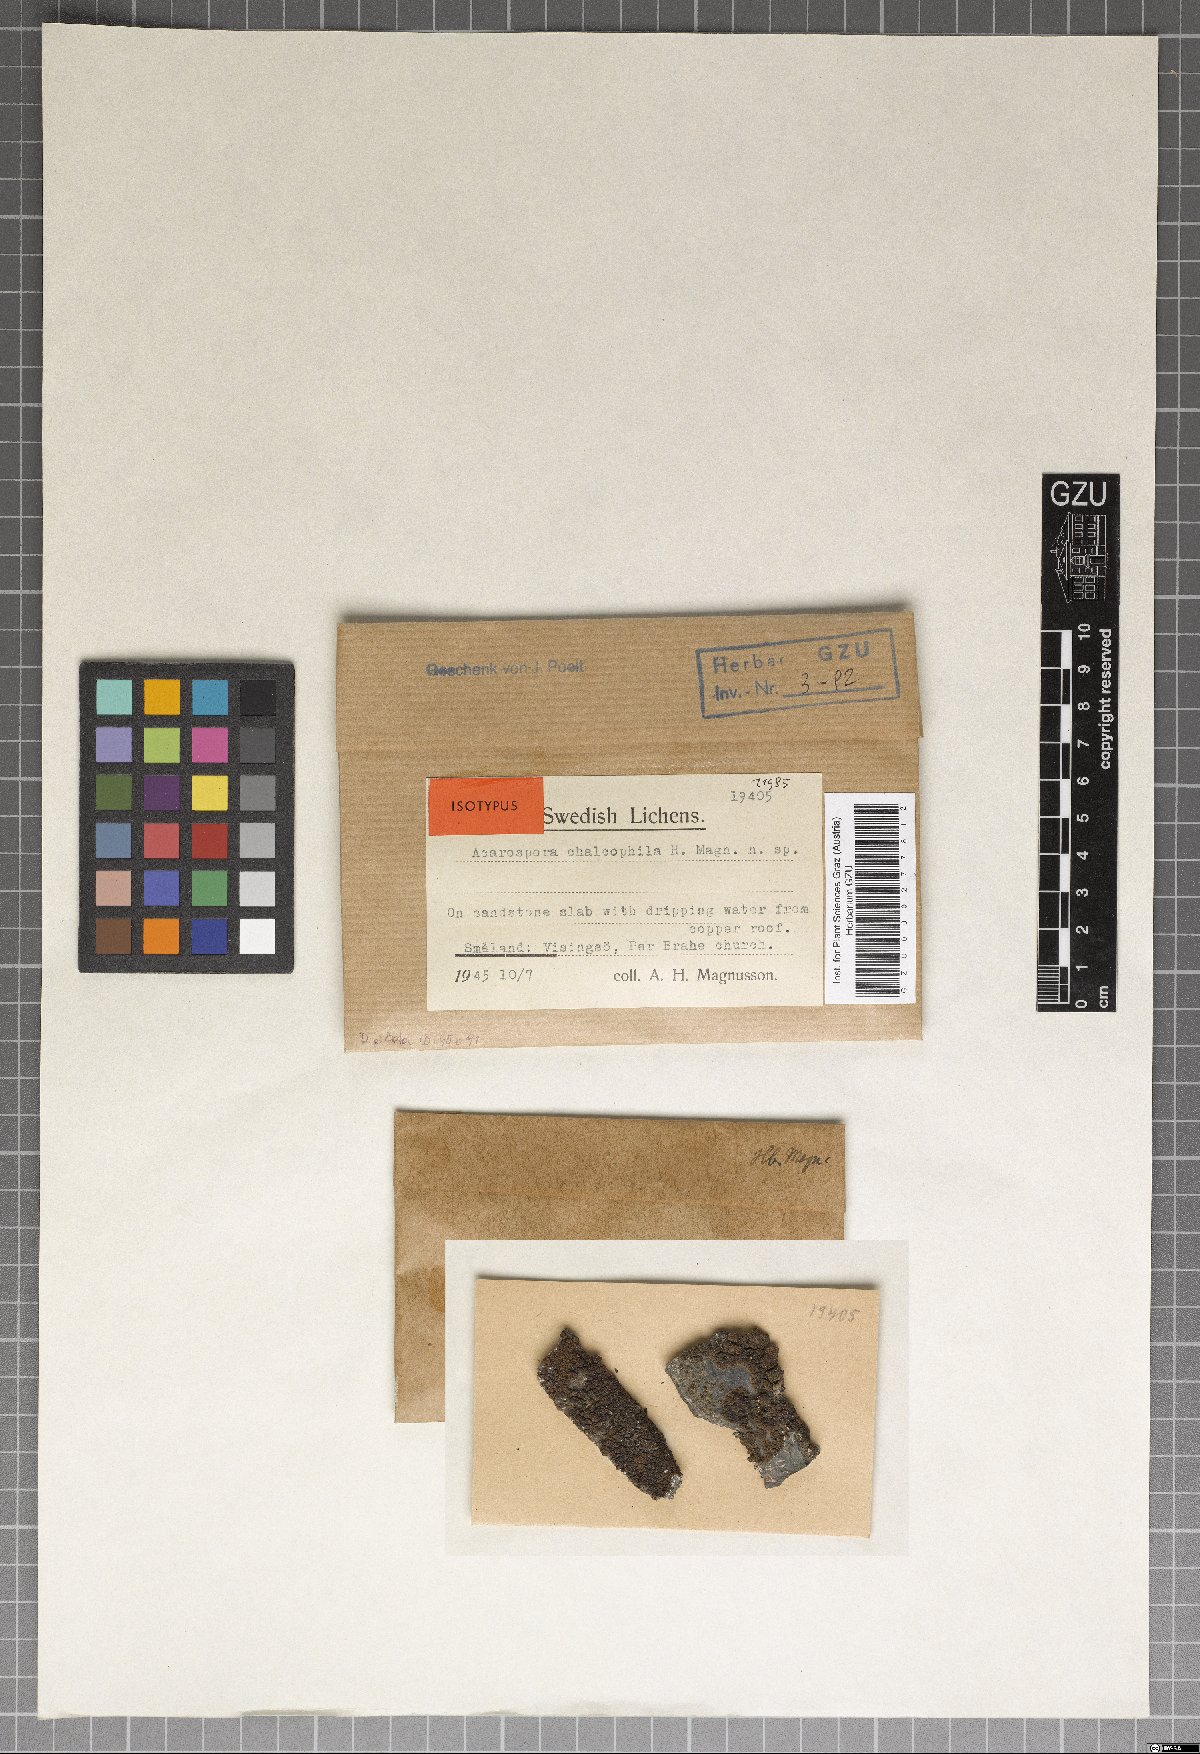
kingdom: Fungi
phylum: Ascomycota
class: Lecanoromycetes
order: Acarosporales
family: Acarosporaceae
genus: Polysporinopsis
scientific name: Polysporinopsis rugulosa
